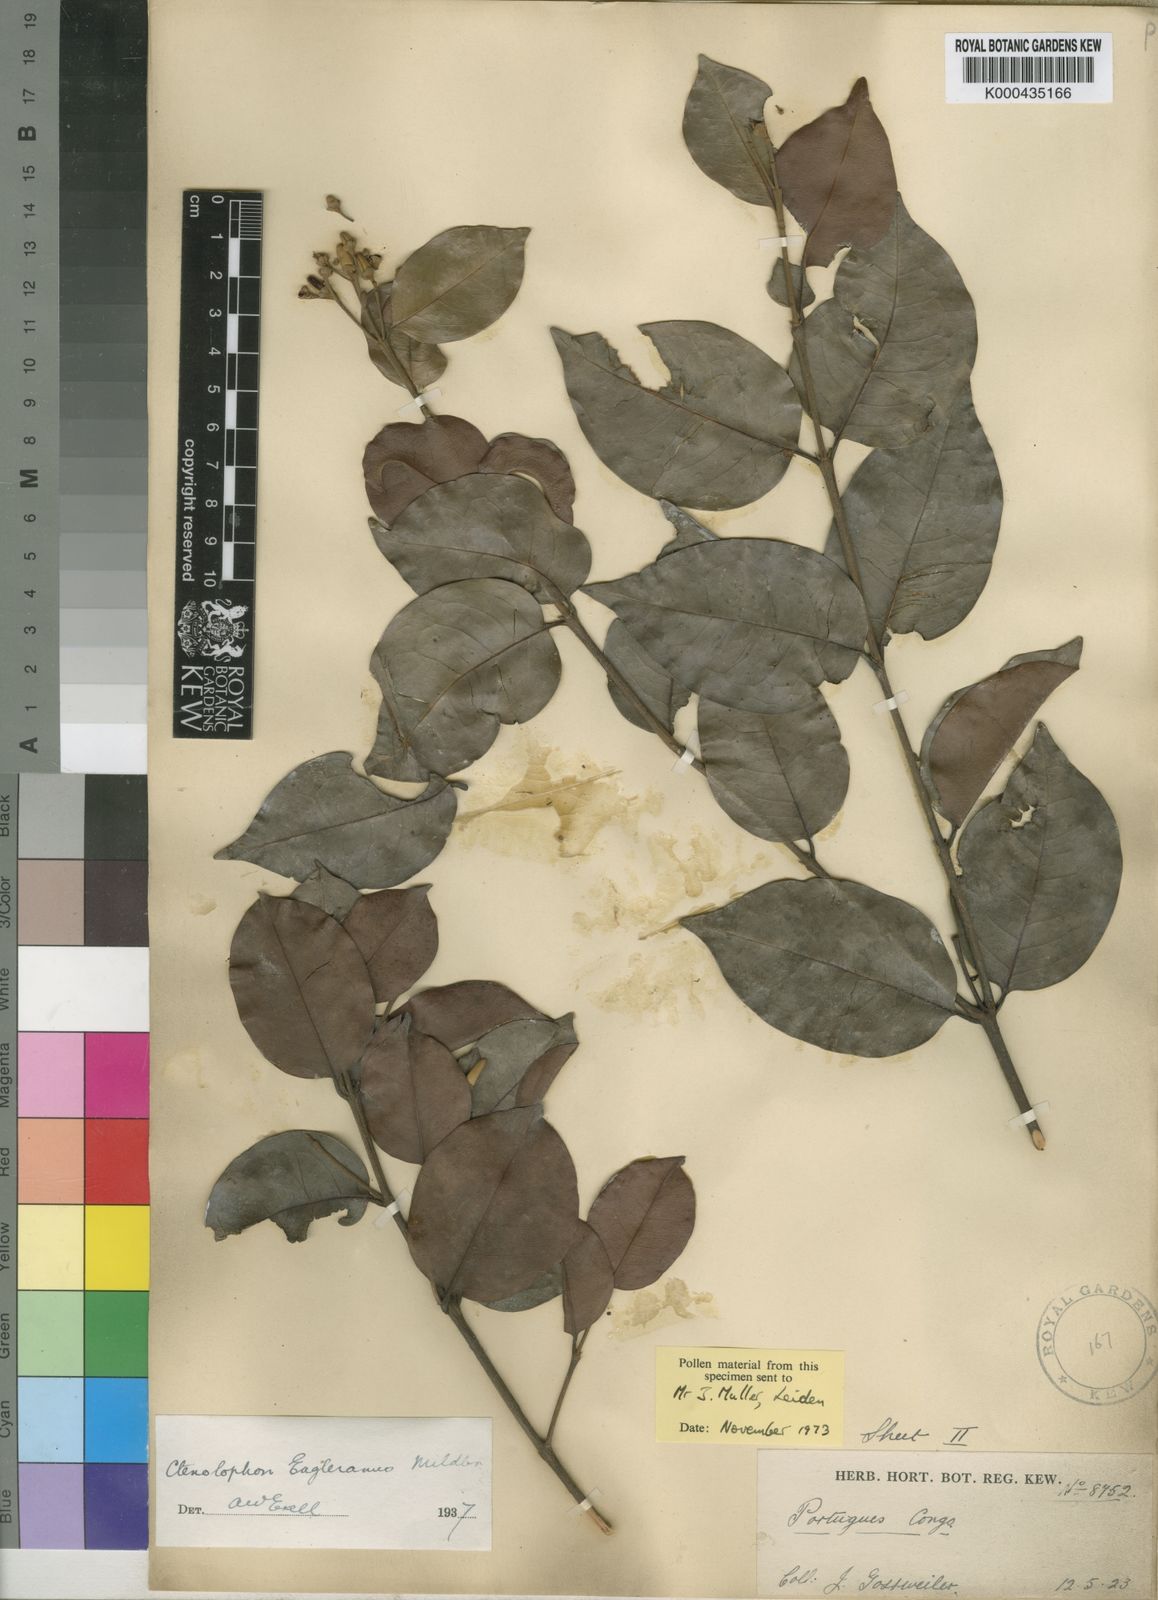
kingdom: Plantae
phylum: Tracheophyta
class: Magnoliopsida
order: Malpighiales
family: Ctenolophonaceae
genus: Ctenolophon
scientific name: Ctenolophon englerianus
